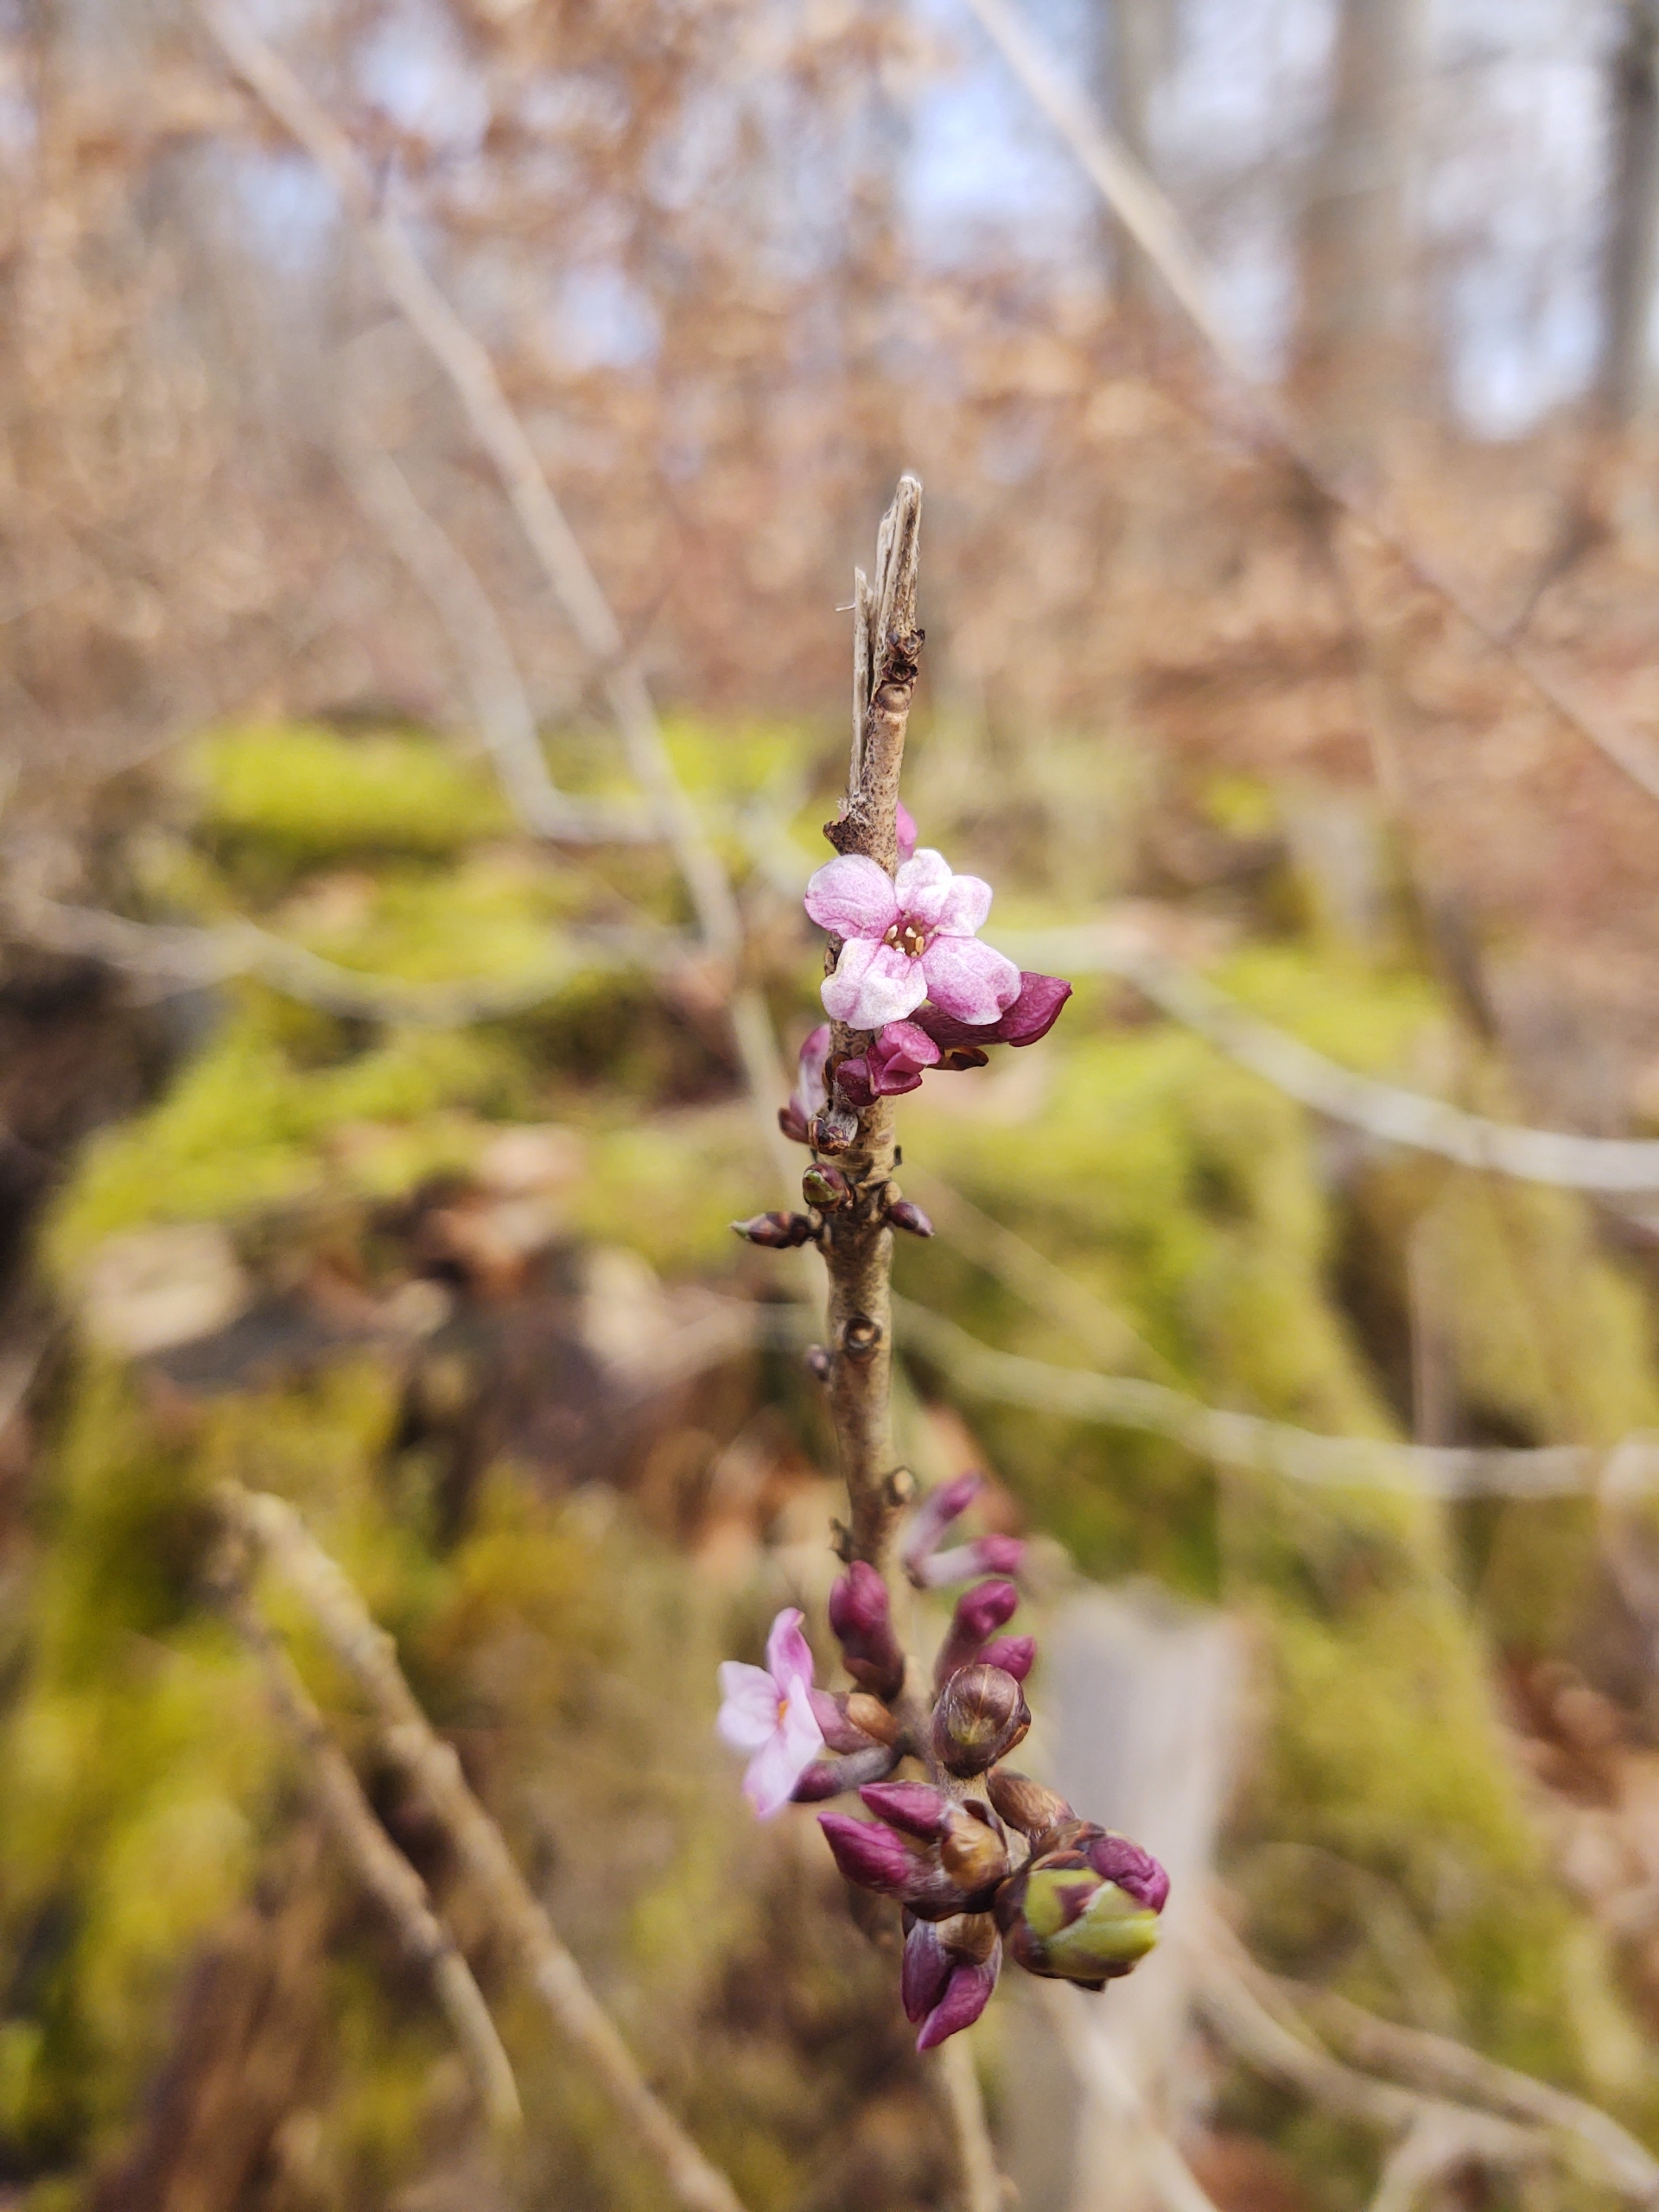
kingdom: Plantae
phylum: Tracheophyta
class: Magnoliopsida
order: Malvales
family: Thymelaeaceae
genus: Daphne
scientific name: Daphne mezereum
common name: Pebertræ
